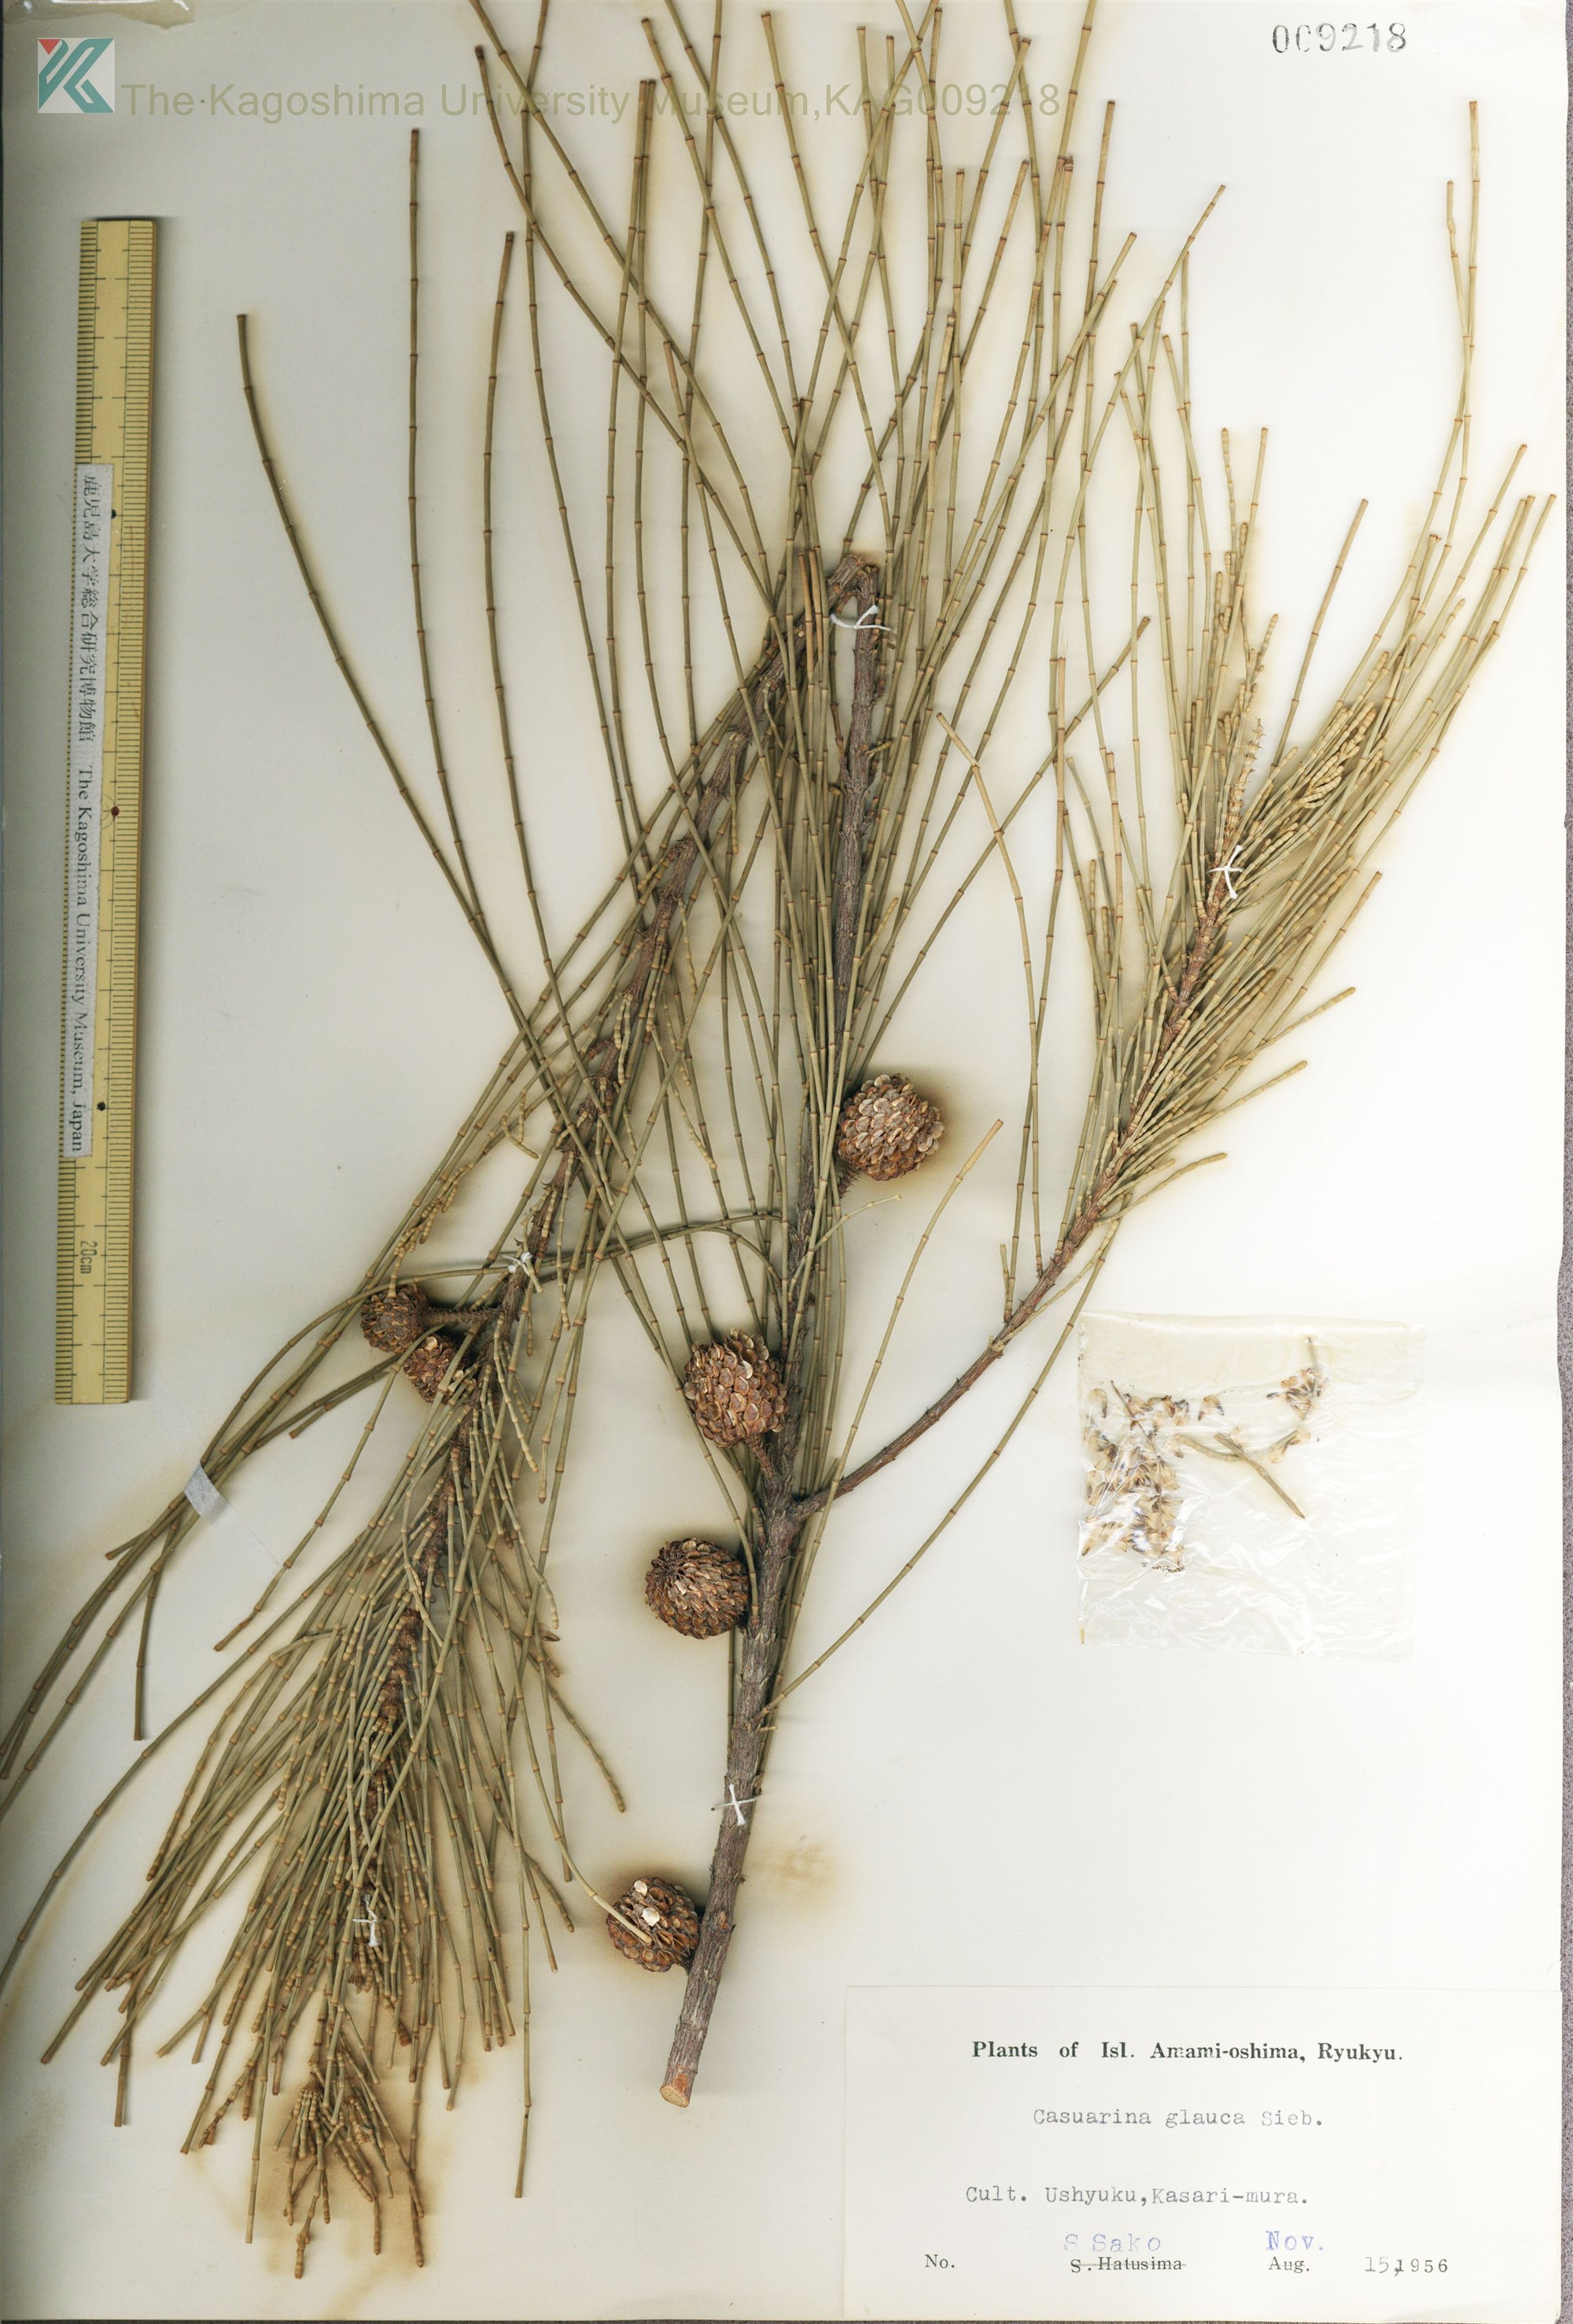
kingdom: Plantae
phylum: Tracheophyta
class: Magnoliopsida
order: Fagales
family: Casuarinaceae
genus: Casuarina
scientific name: Casuarina glauca
